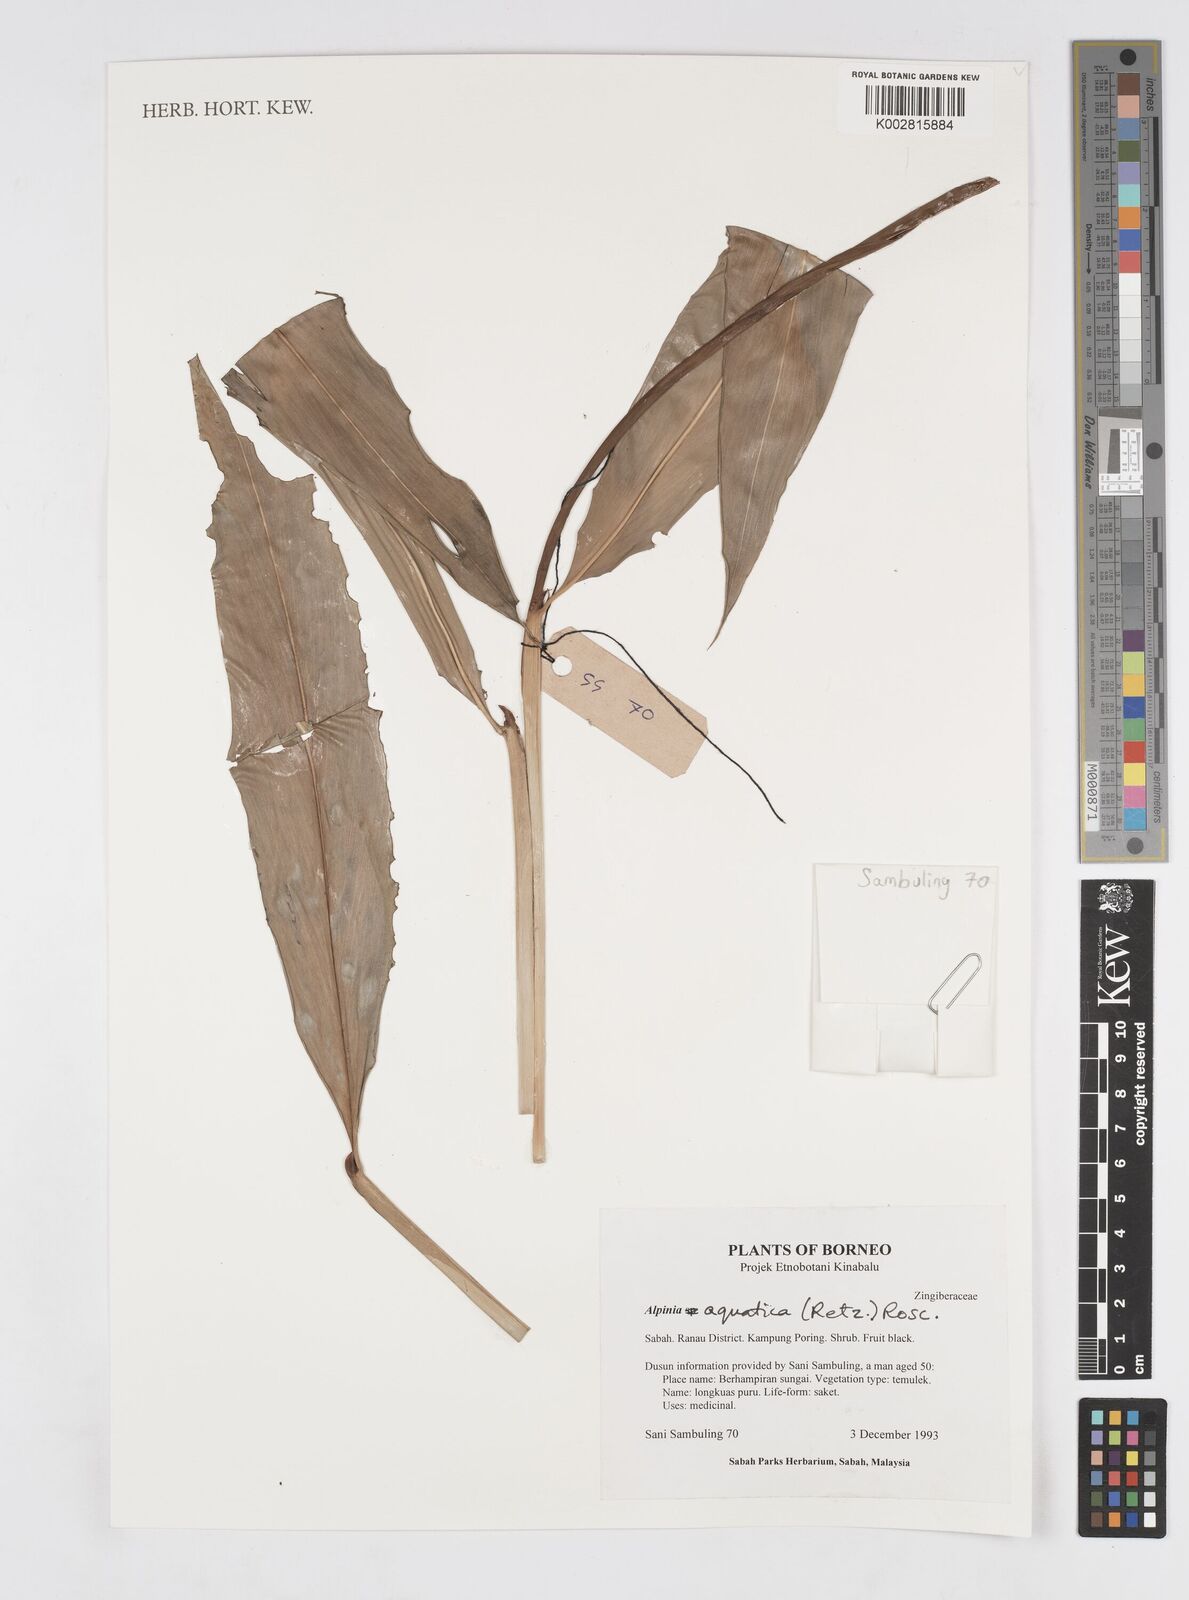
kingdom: Plantae
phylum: Tracheophyta
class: Liliopsida
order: Zingiberales
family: Zingiberaceae
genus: Alpinia
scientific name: Alpinia aquatica
